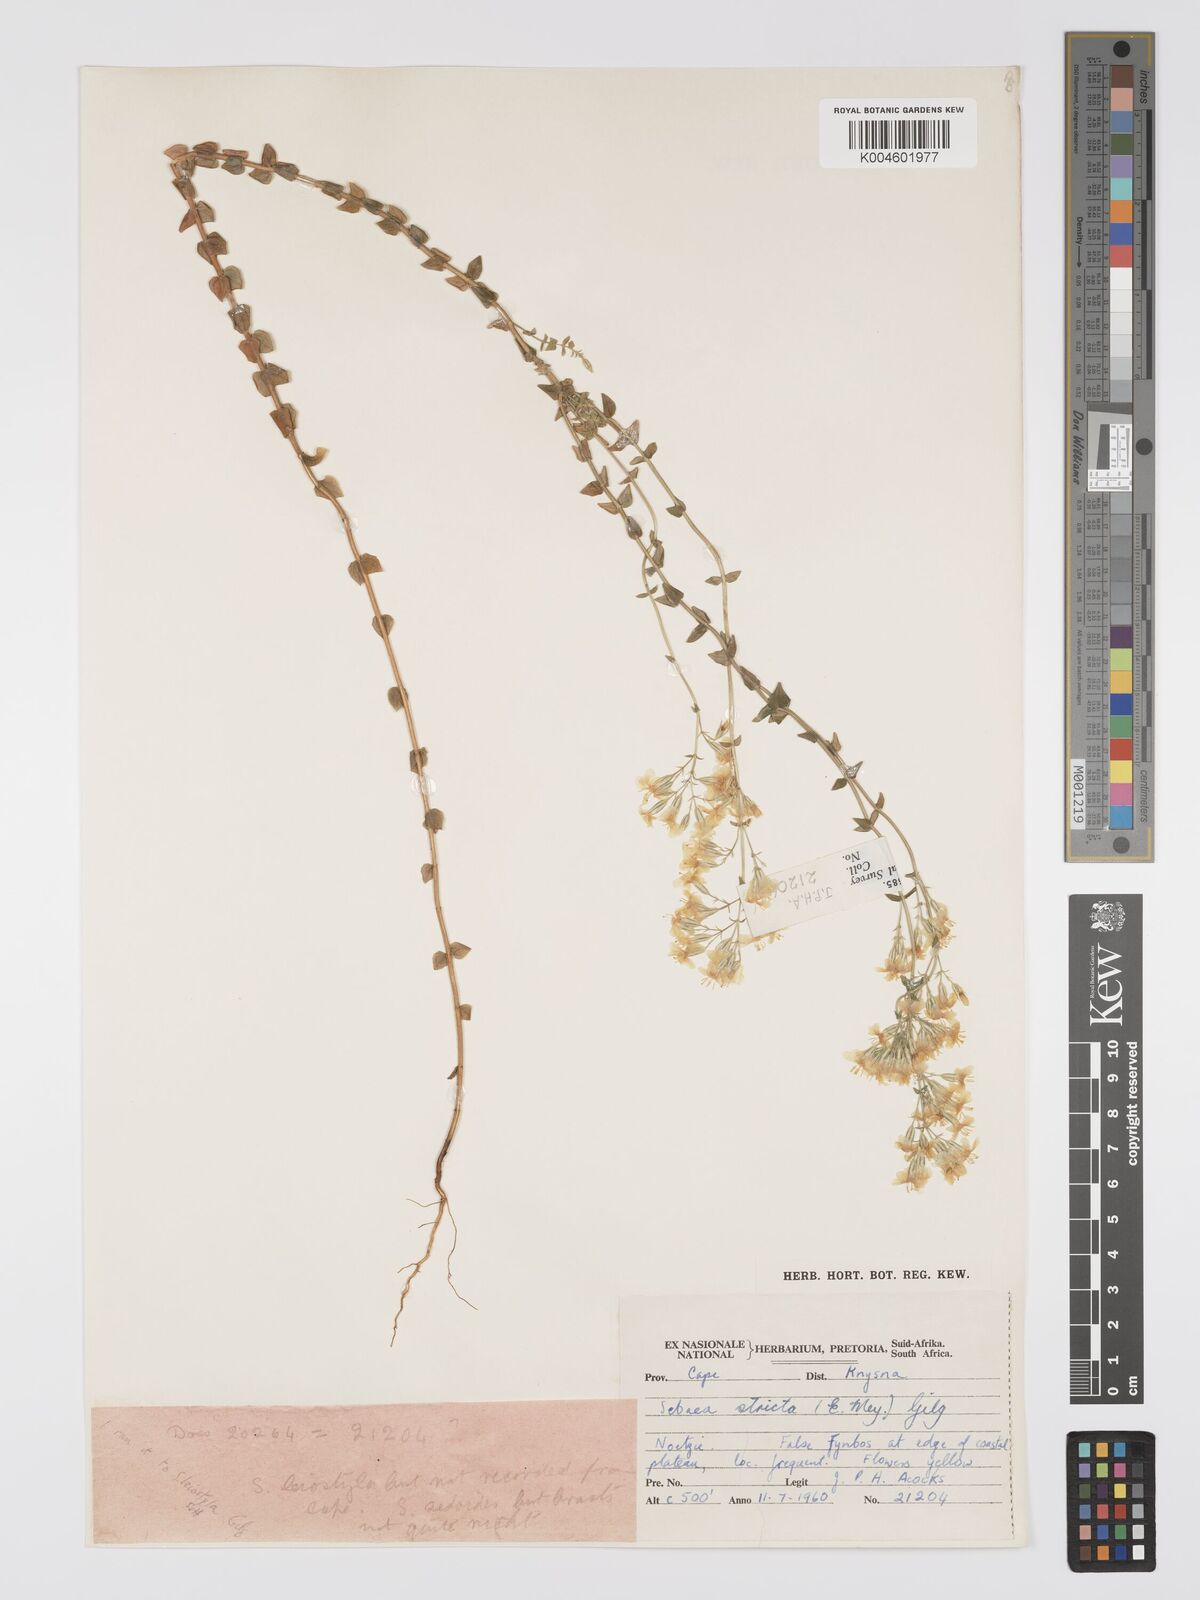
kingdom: Plantae
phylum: Tracheophyta
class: Magnoliopsida
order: Gentianales
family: Gentianaceae
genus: Sebaea
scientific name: Sebaea
